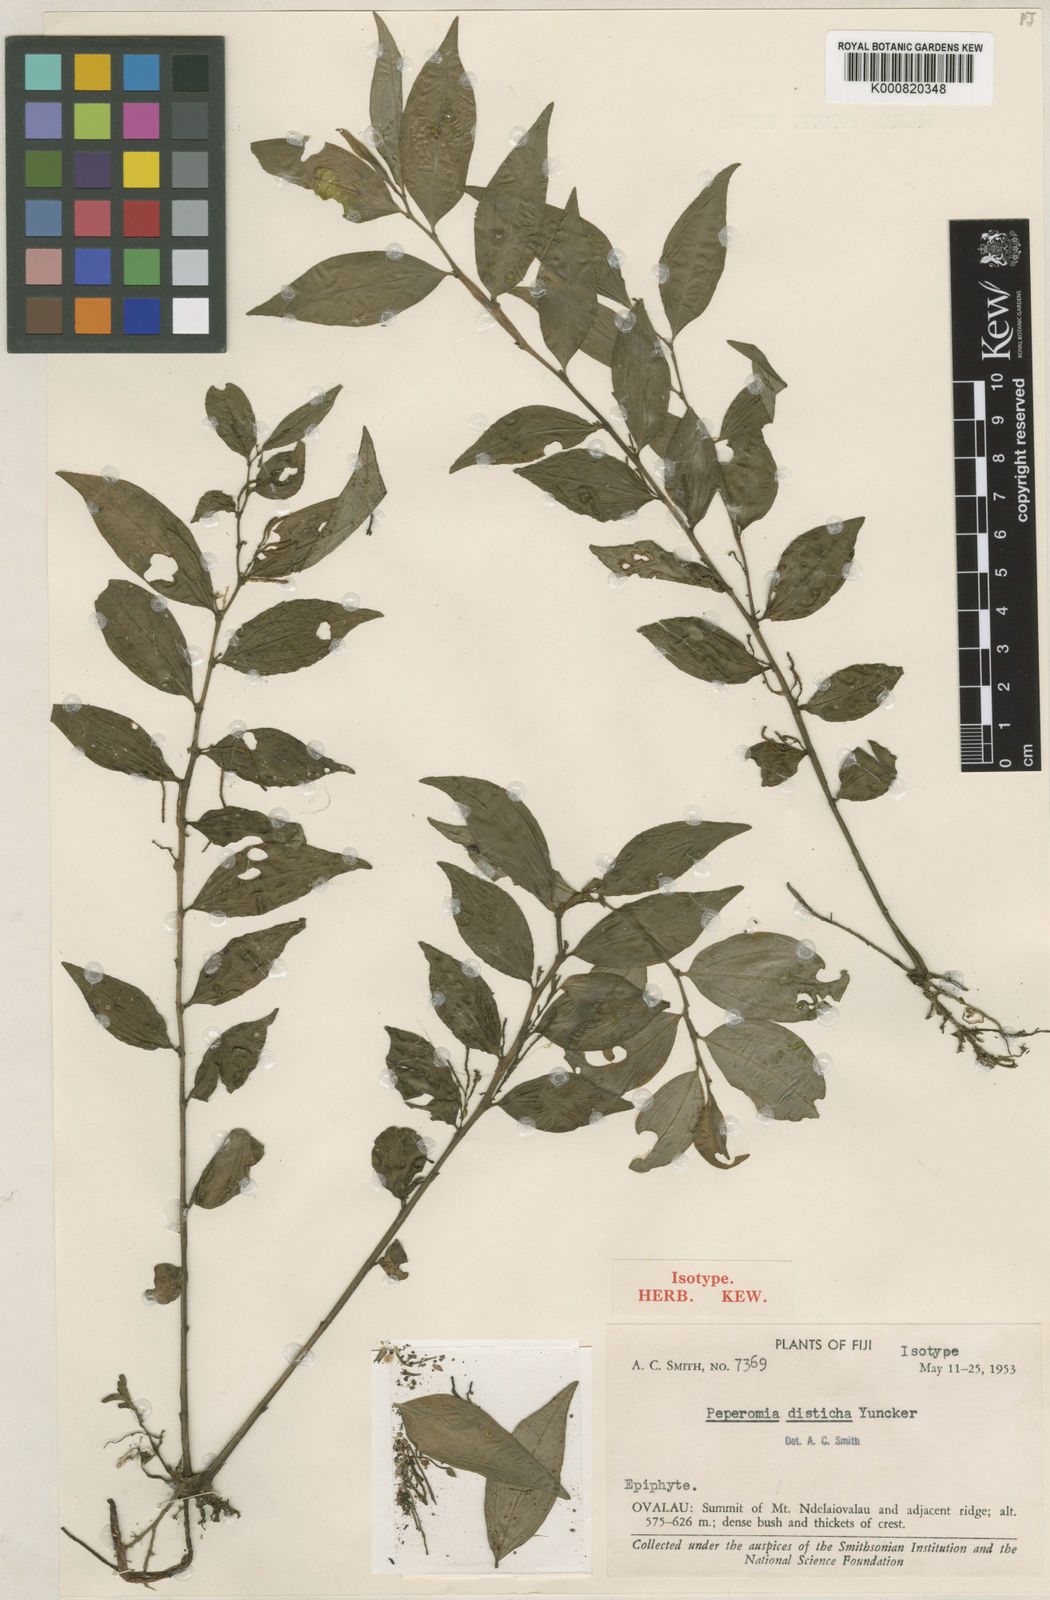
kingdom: Plantae
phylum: Tracheophyta
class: Magnoliopsida
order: Piperales
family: Piperaceae
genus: Peperomia
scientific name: Peperomia disticha
